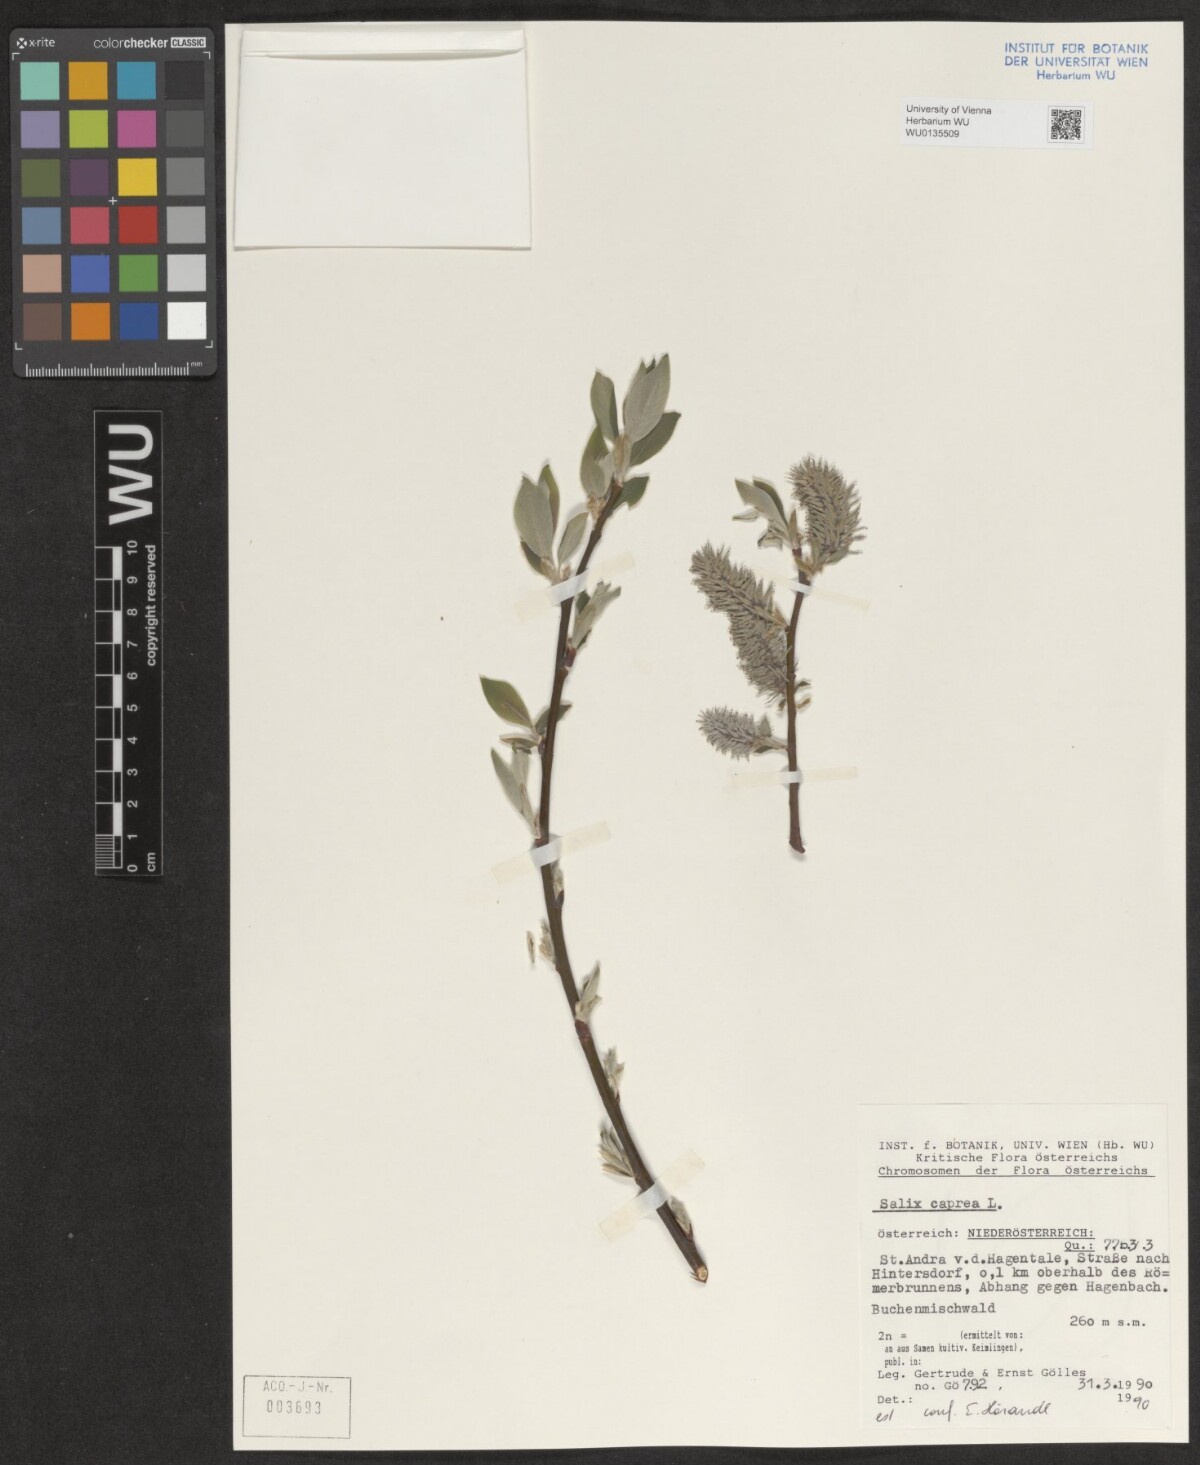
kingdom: Plantae
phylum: Tracheophyta
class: Magnoliopsida
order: Malpighiales
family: Salicaceae
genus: Salix
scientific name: Salix caprea
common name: Goat willow
